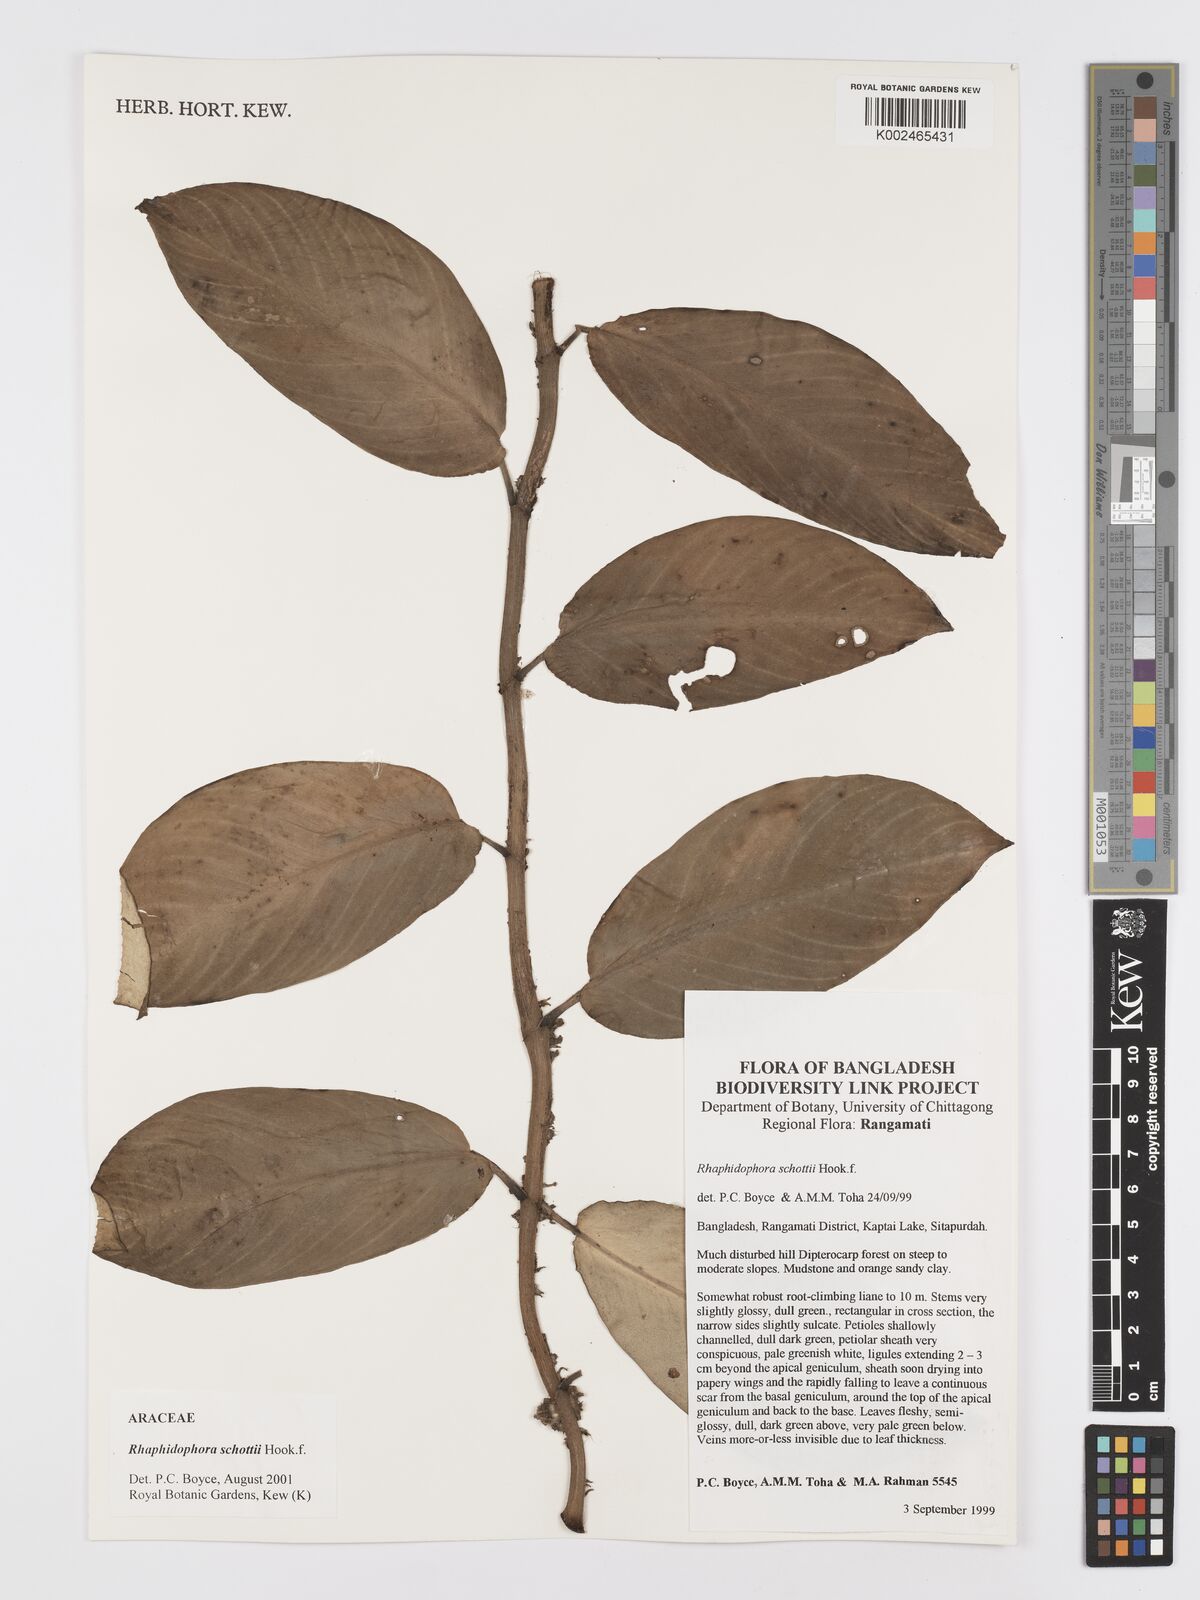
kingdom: Plantae
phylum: Tracheophyta
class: Liliopsida
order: Alismatales
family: Araceae
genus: Rhaphidophora
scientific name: Rhaphidophora schottii
